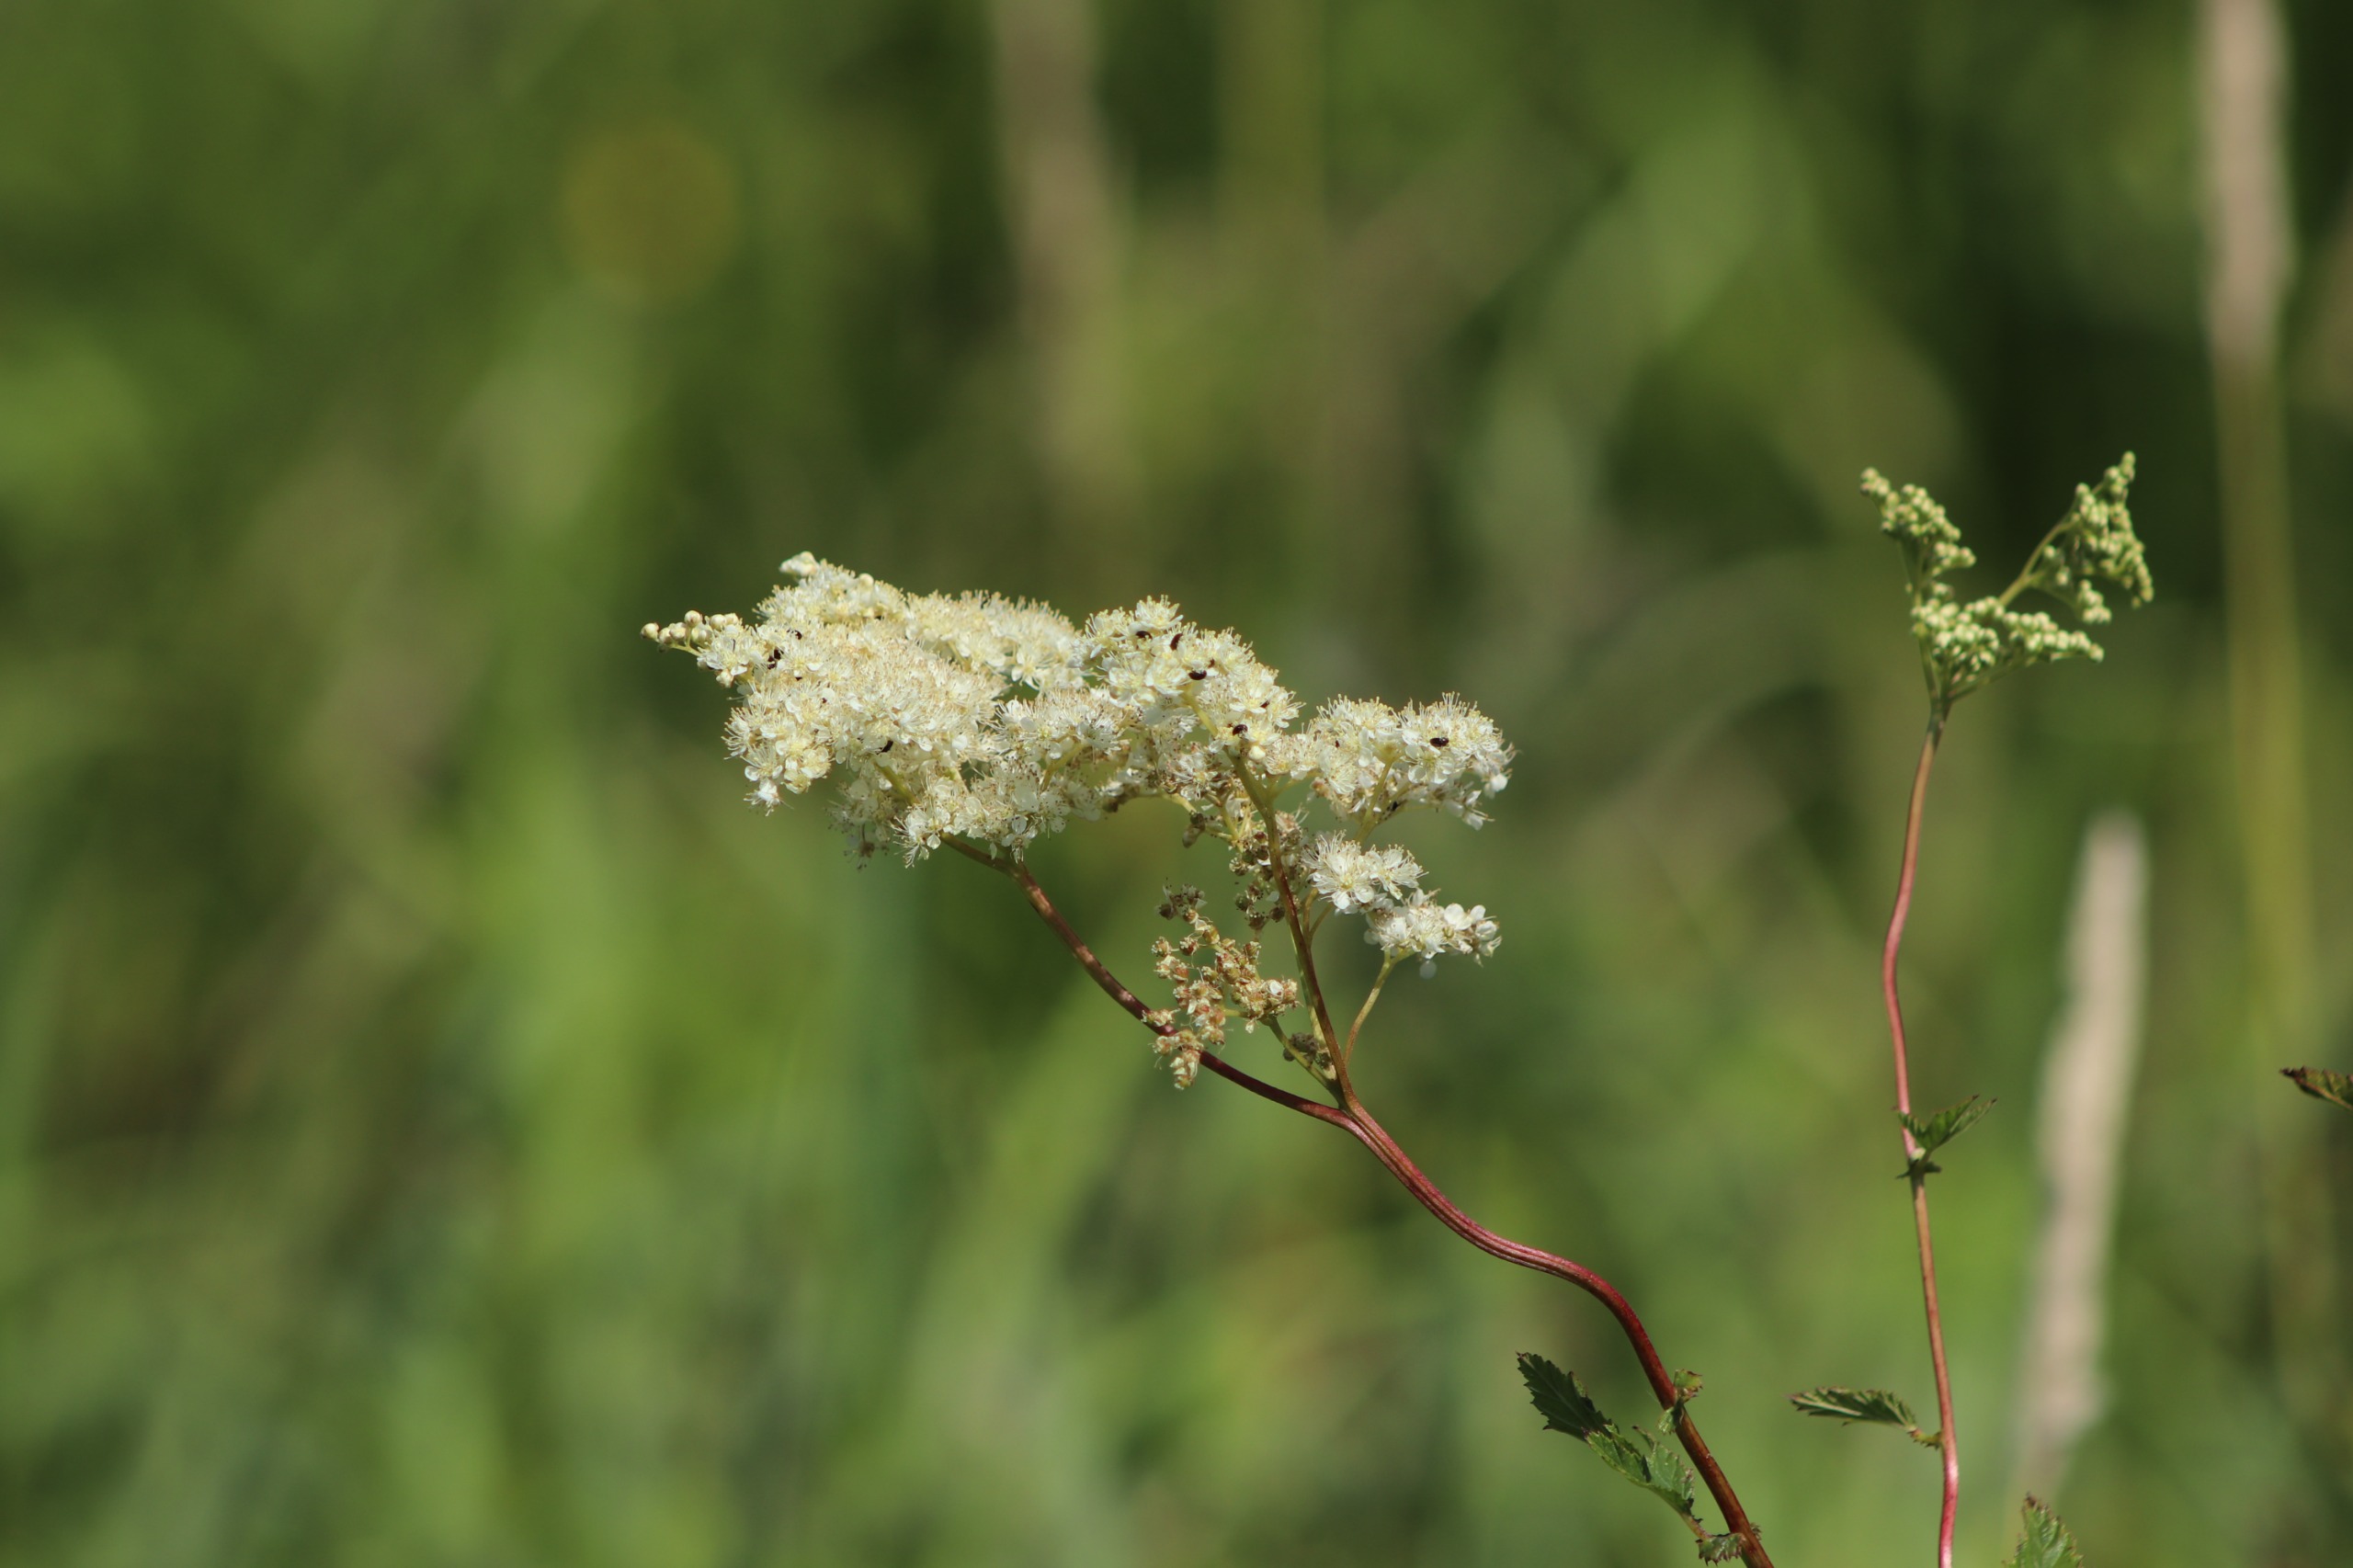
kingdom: Plantae
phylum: Tracheophyta
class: Magnoliopsida
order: Rosales
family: Rosaceae
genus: Filipendula
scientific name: Filipendula ulmaria
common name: Almindelig mjødurt
